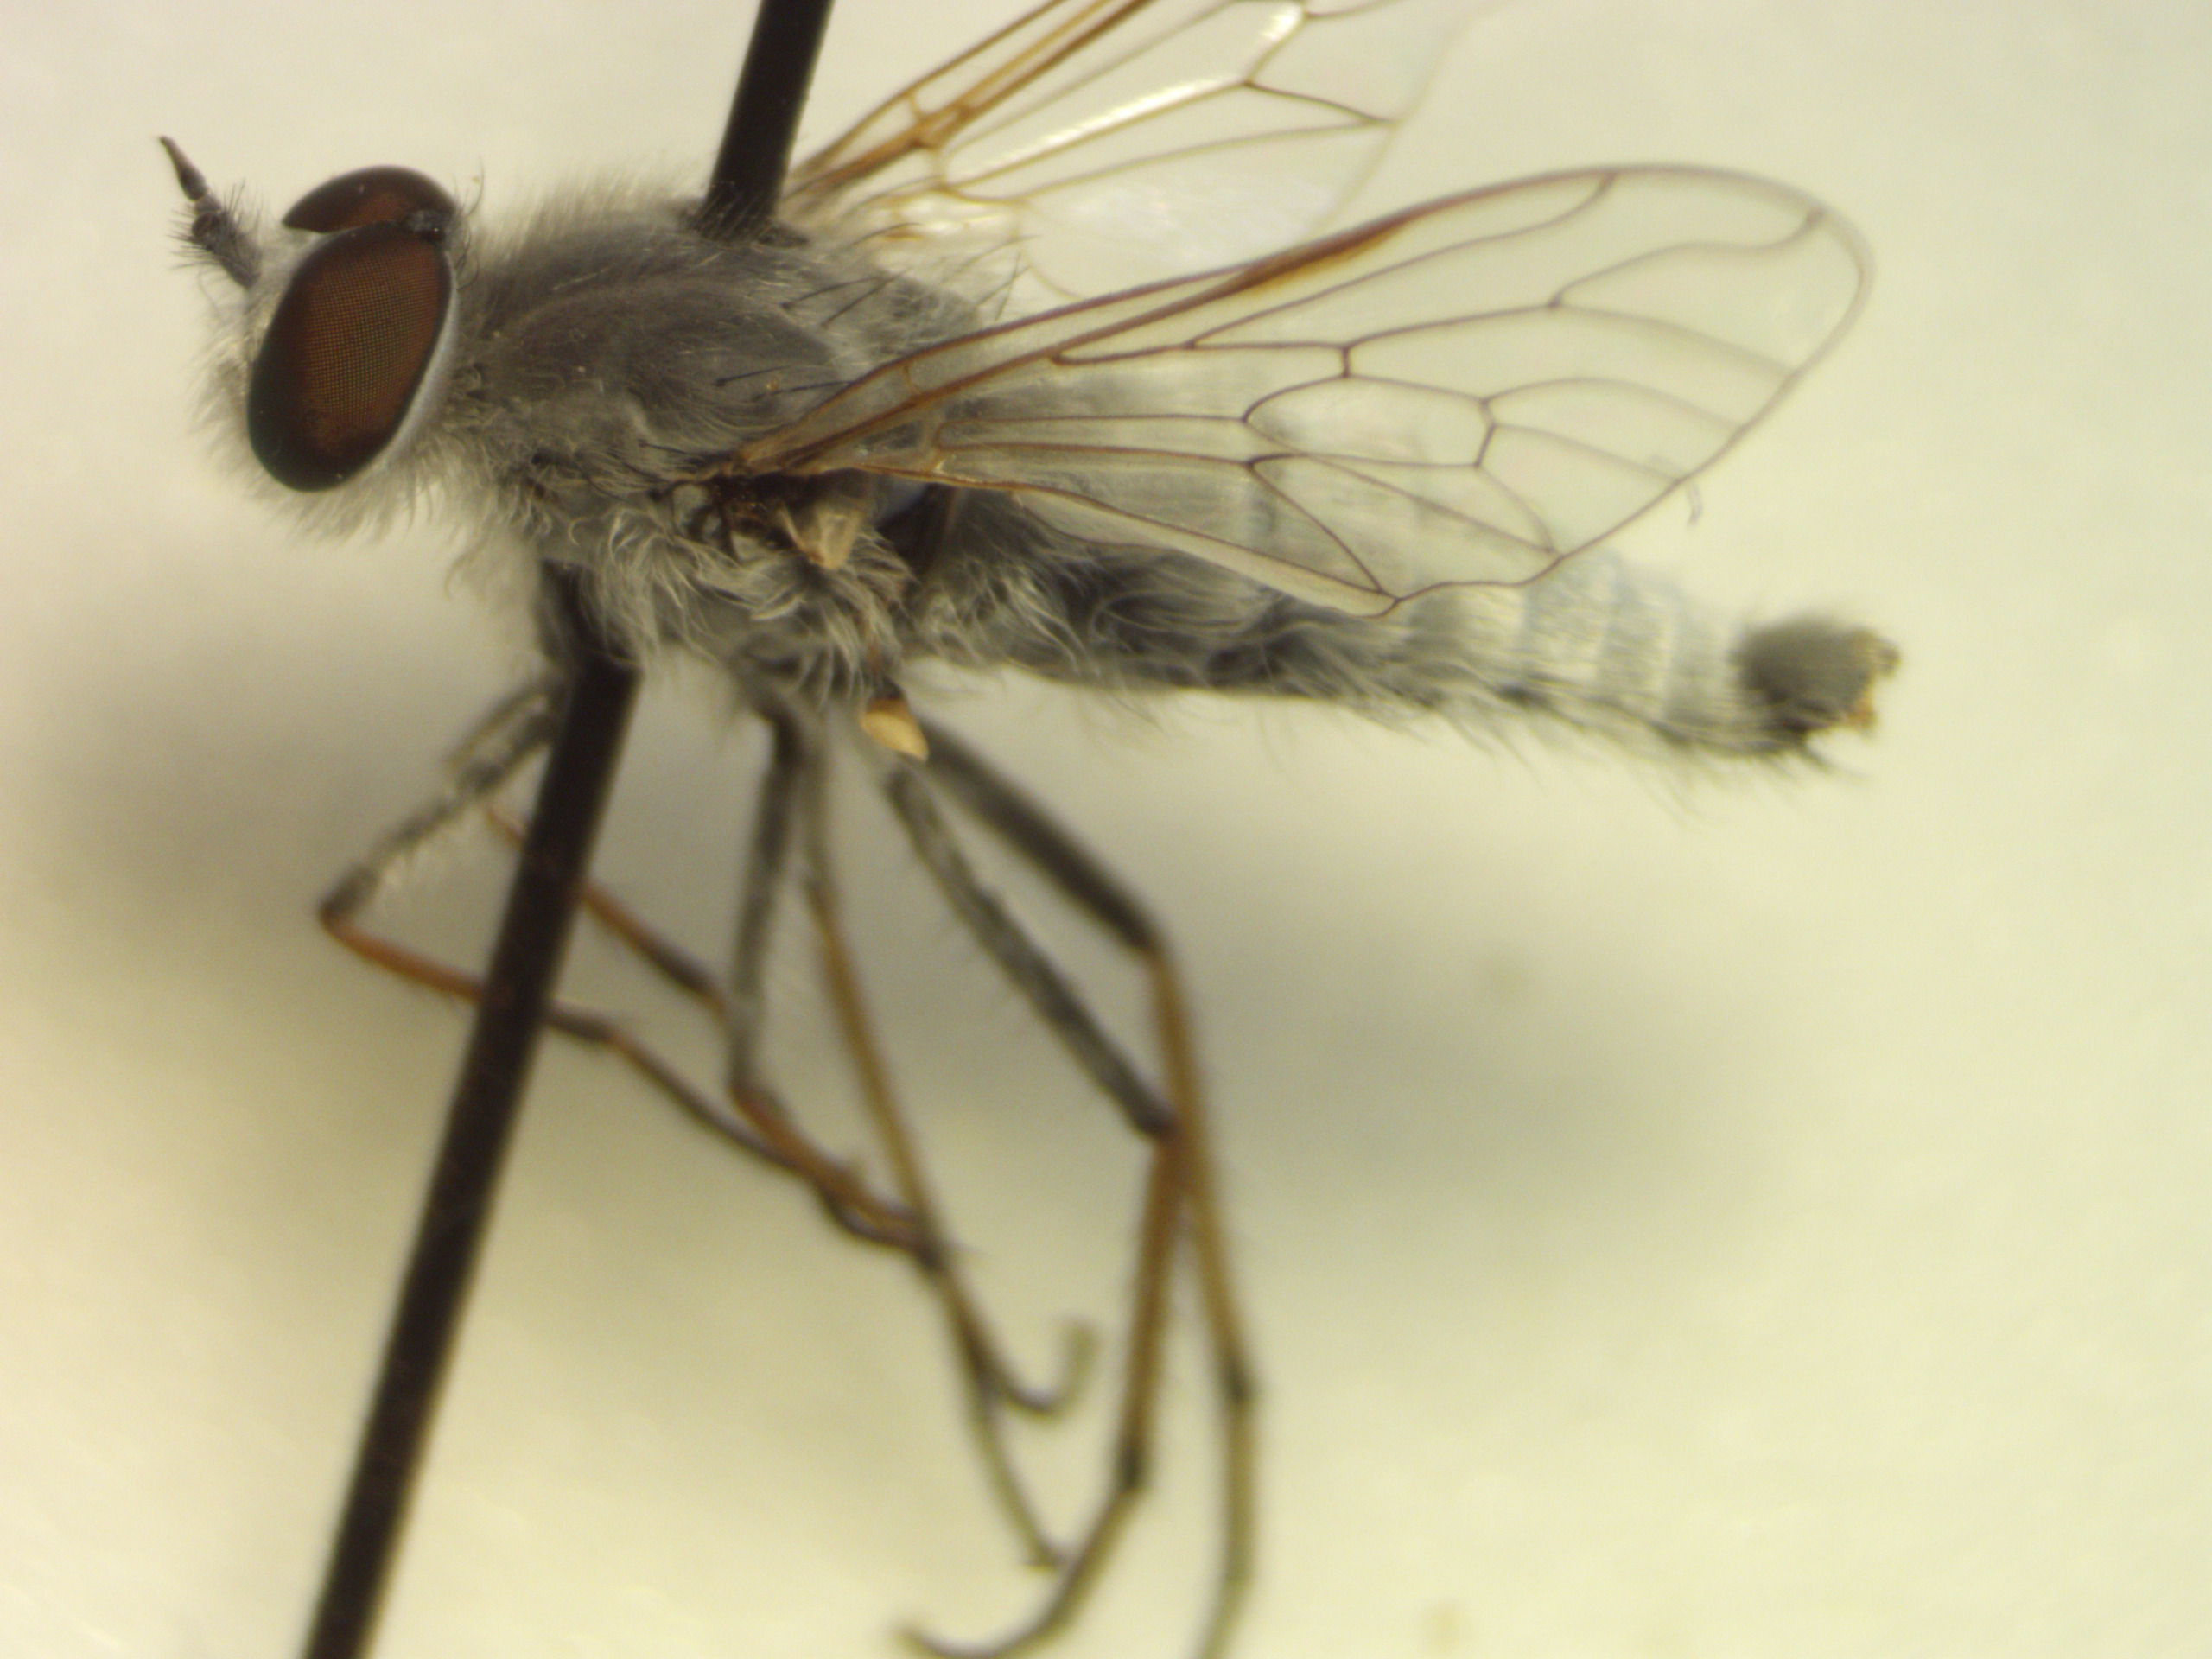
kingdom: Animalia
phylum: Arthropoda
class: Insecta
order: Diptera
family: Therevidae
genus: Acrosathe
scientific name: Acrosathe annulata
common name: Sølvhåret stiletflue
